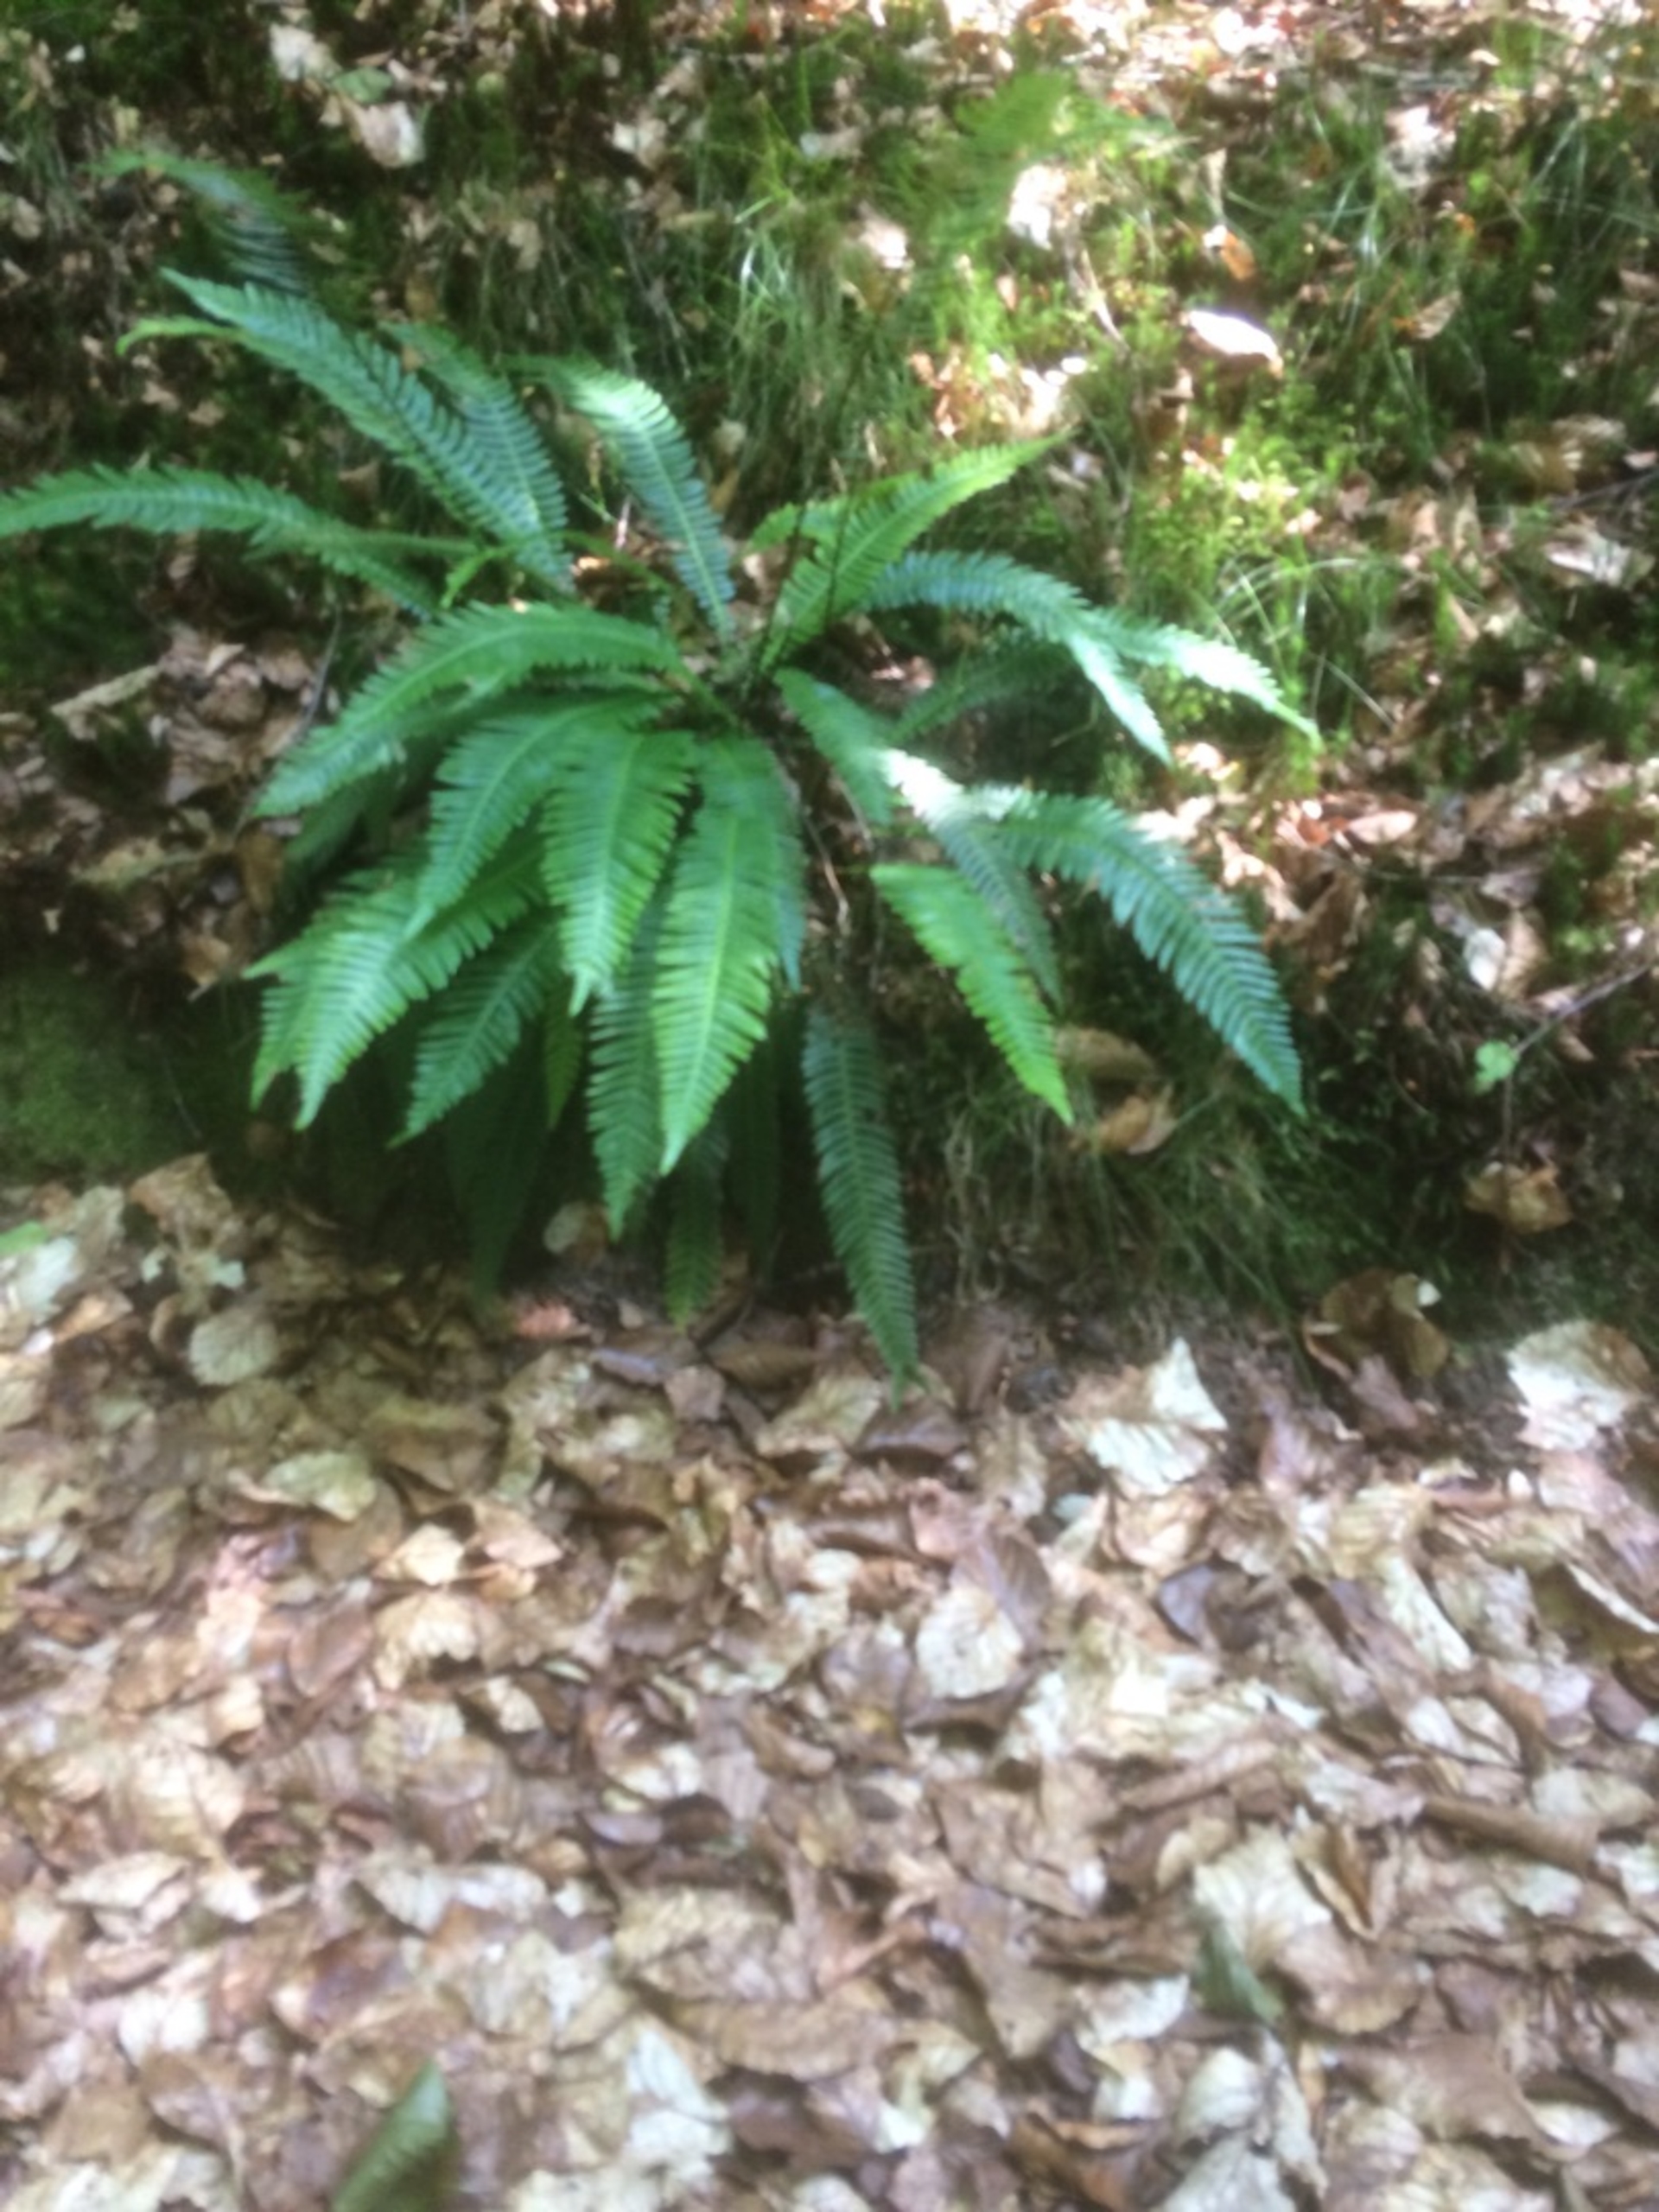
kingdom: Plantae
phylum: Tracheophyta
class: Polypodiopsida
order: Polypodiales
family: Blechnaceae
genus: Struthiopteris
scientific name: Struthiopteris spicant
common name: Kambregne
